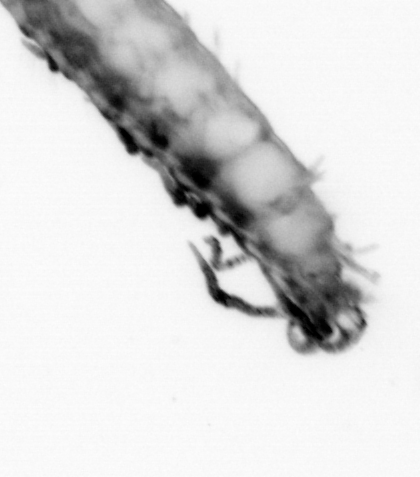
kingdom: Animalia
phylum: Annelida
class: Polychaeta
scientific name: Polychaeta
